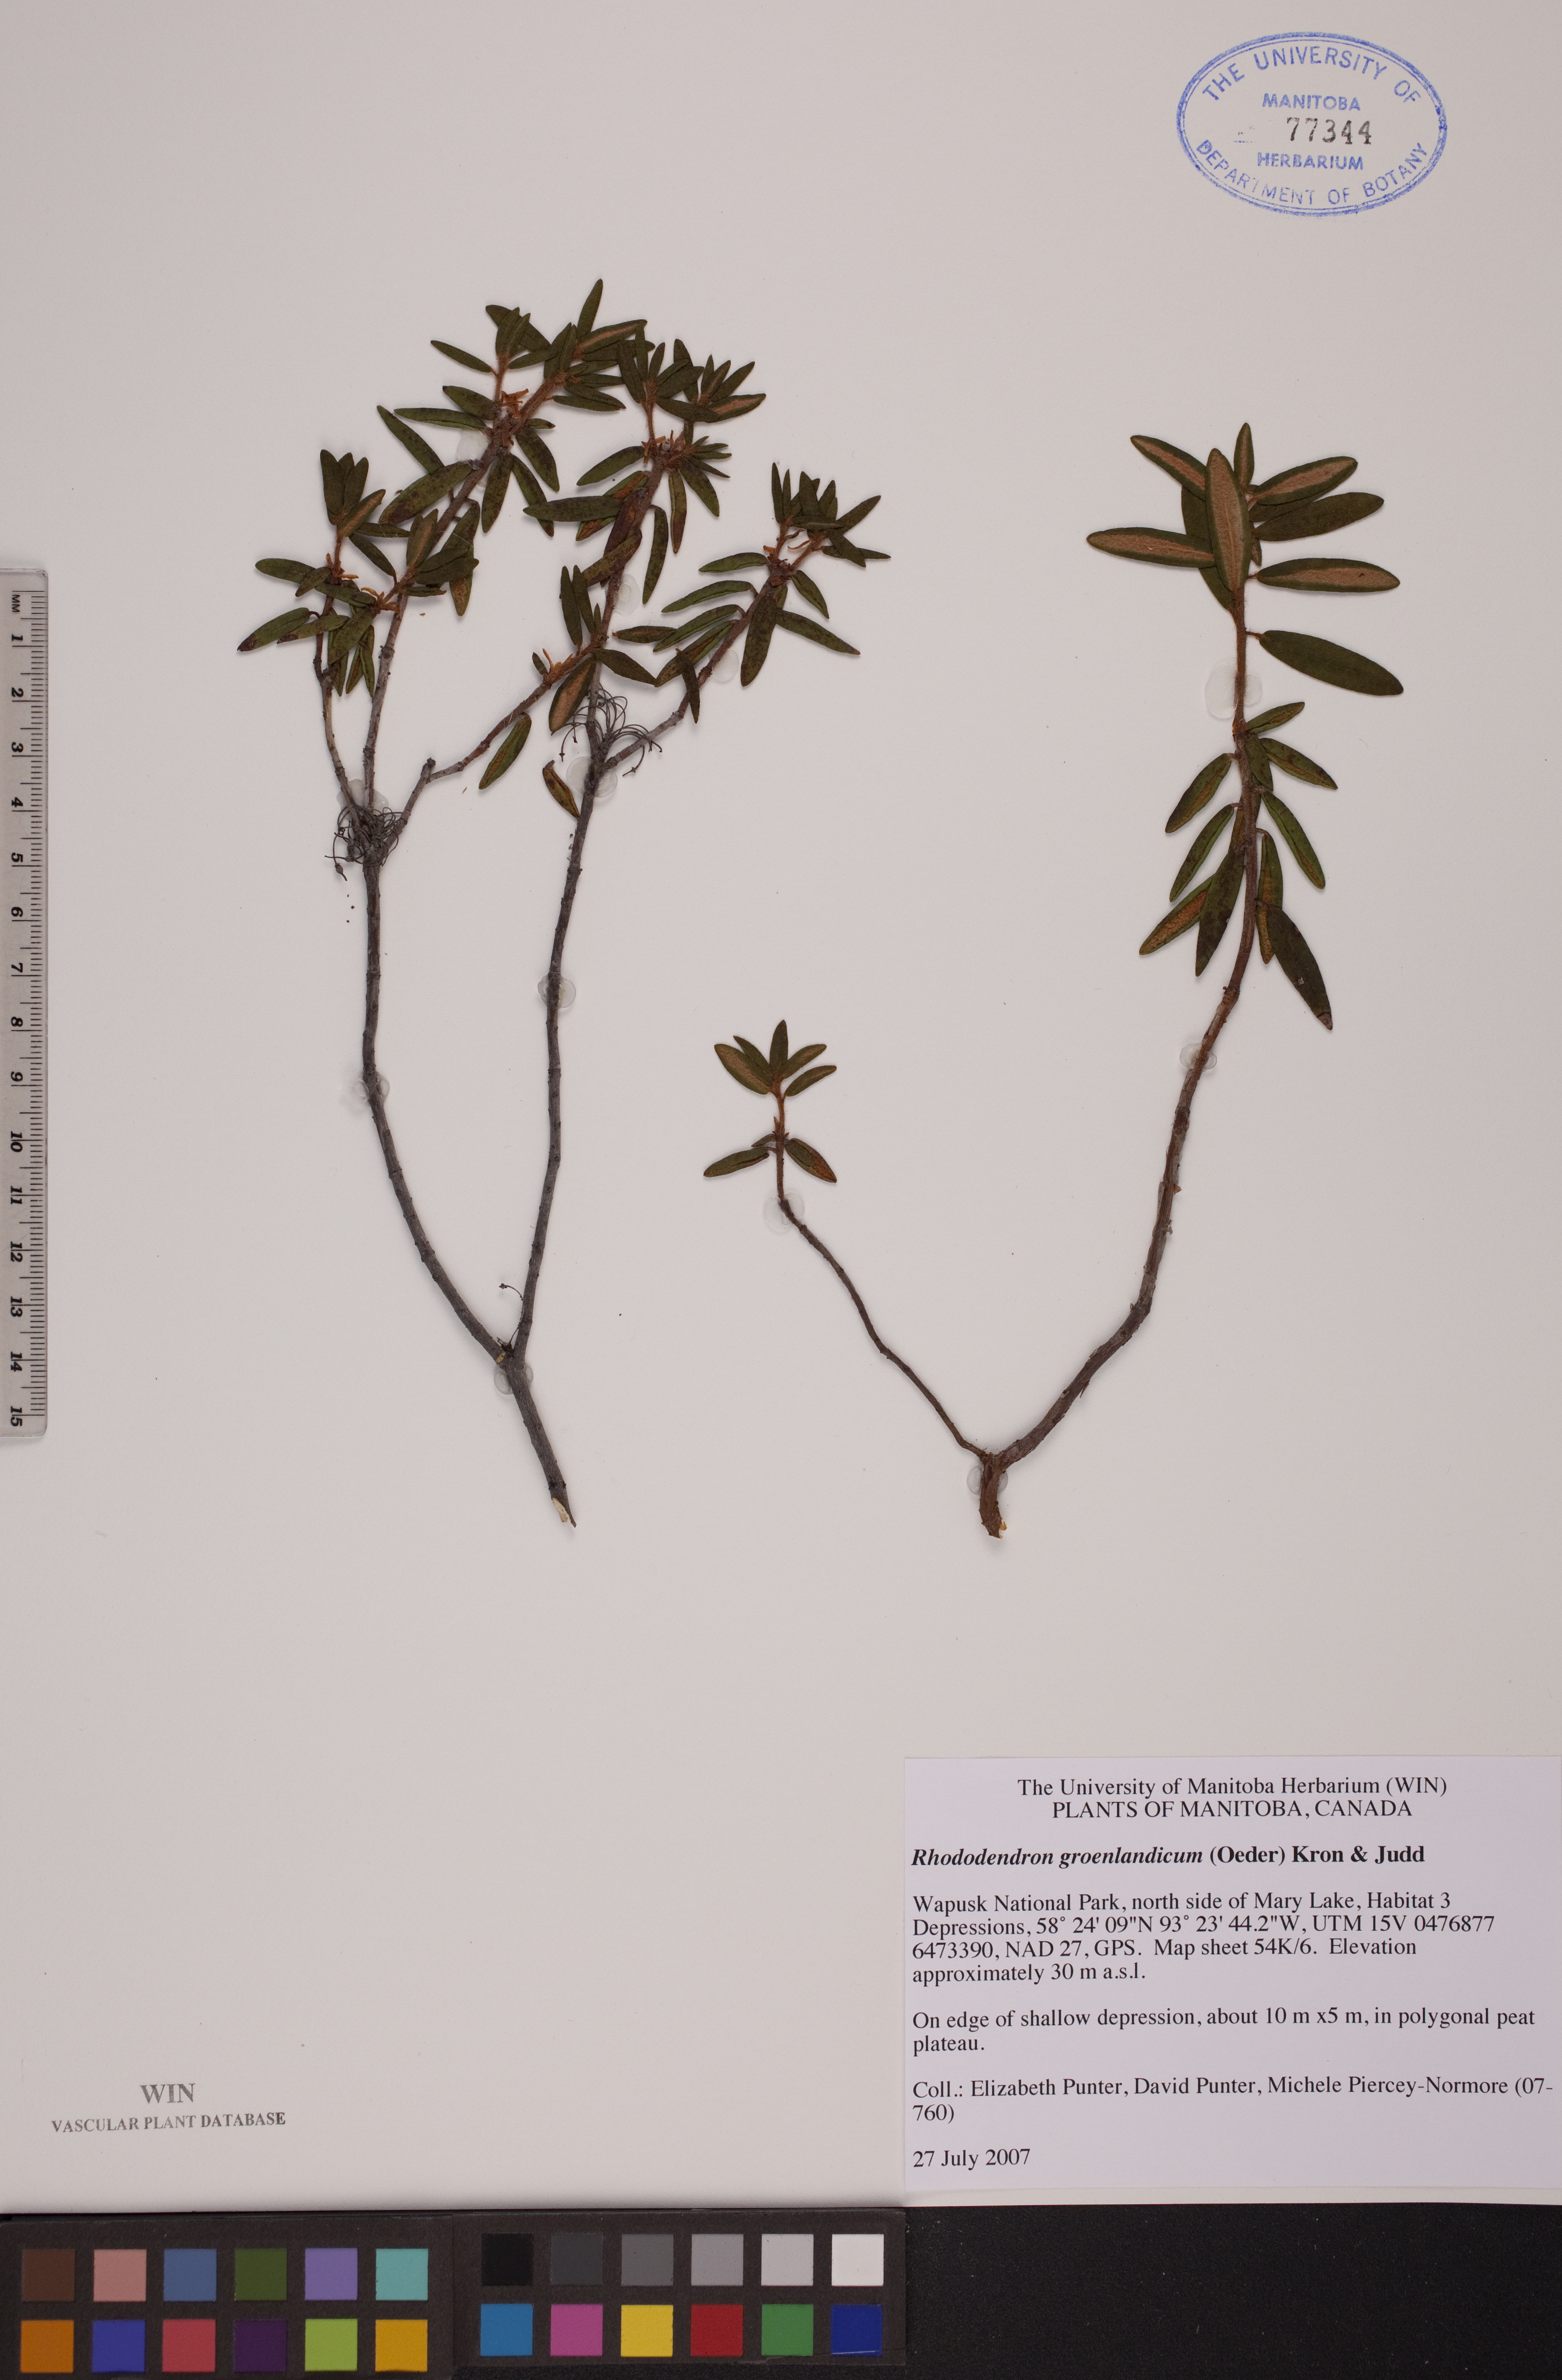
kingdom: Plantae
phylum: Tracheophyta
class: Magnoliopsida
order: Ericales
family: Ericaceae
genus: Rhododendron
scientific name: Rhododendron groenlandicum
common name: Bog labrador tea
